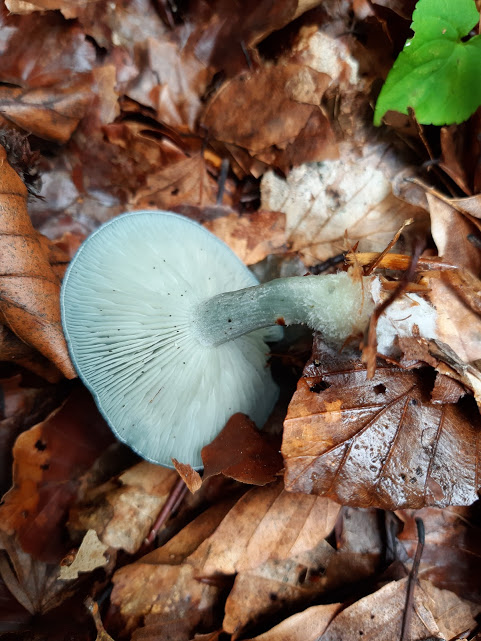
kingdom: Fungi
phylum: Basidiomycota
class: Agaricomycetes
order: Agaricales
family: Tricholomataceae
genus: Clitocybe
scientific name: Clitocybe odora
